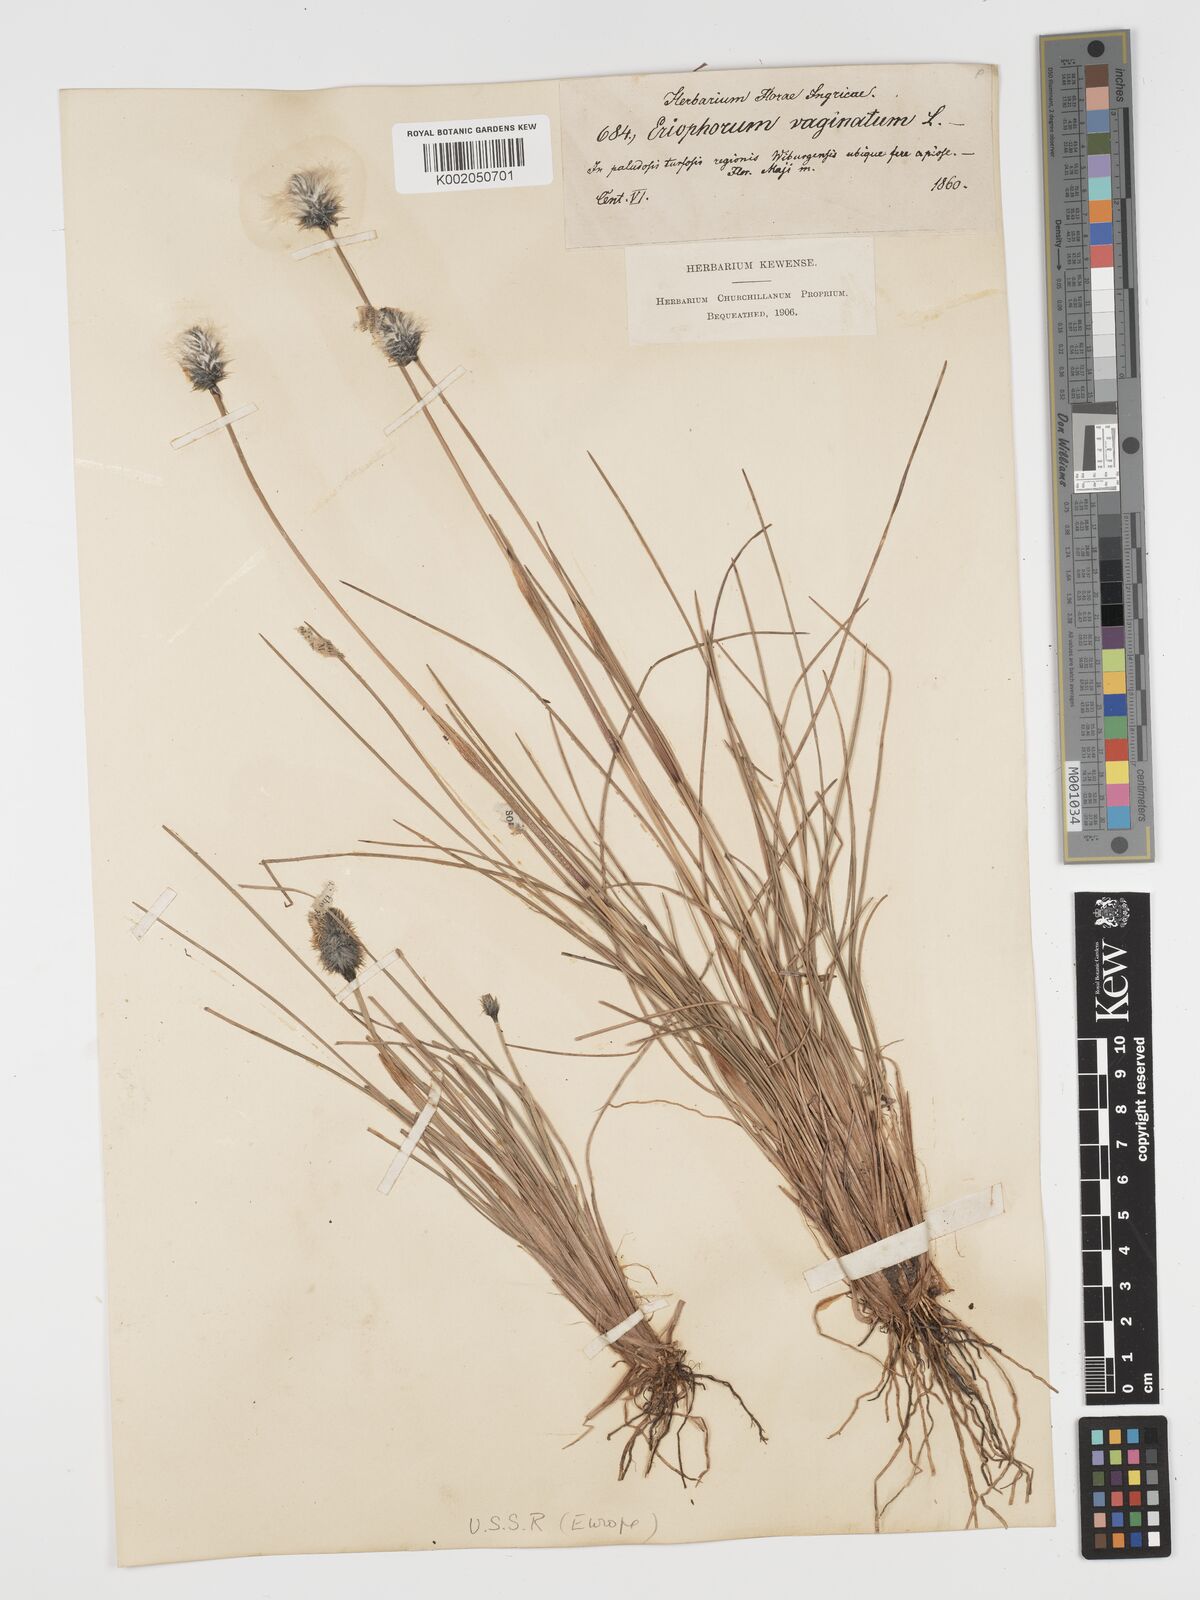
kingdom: Plantae
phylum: Tracheophyta
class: Liliopsida
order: Poales
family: Cyperaceae
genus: Eriophorum
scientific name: Eriophorum vaginatum
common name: Hare's-tail cottongrass
